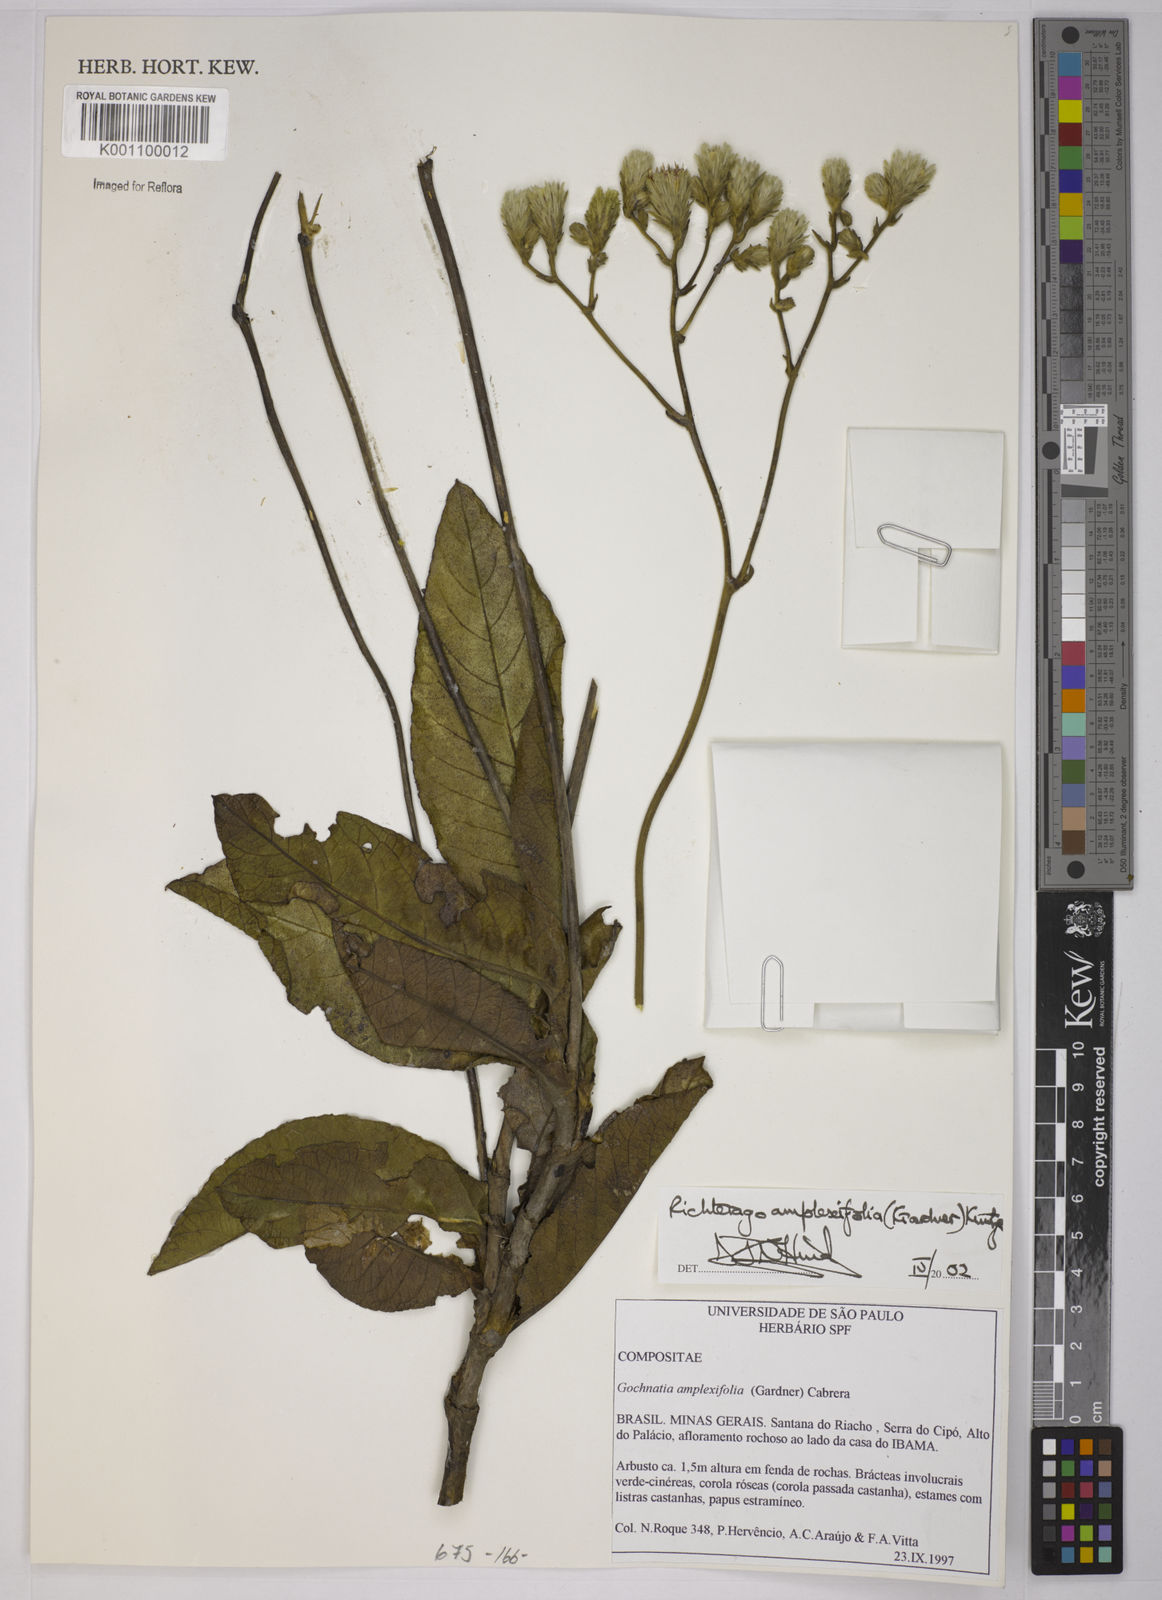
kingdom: Plantae
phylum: Tracheophyta
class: Magnoliopsida
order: Asterales
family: Asteraceae
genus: Richterago
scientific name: Richterago amplexifolia
